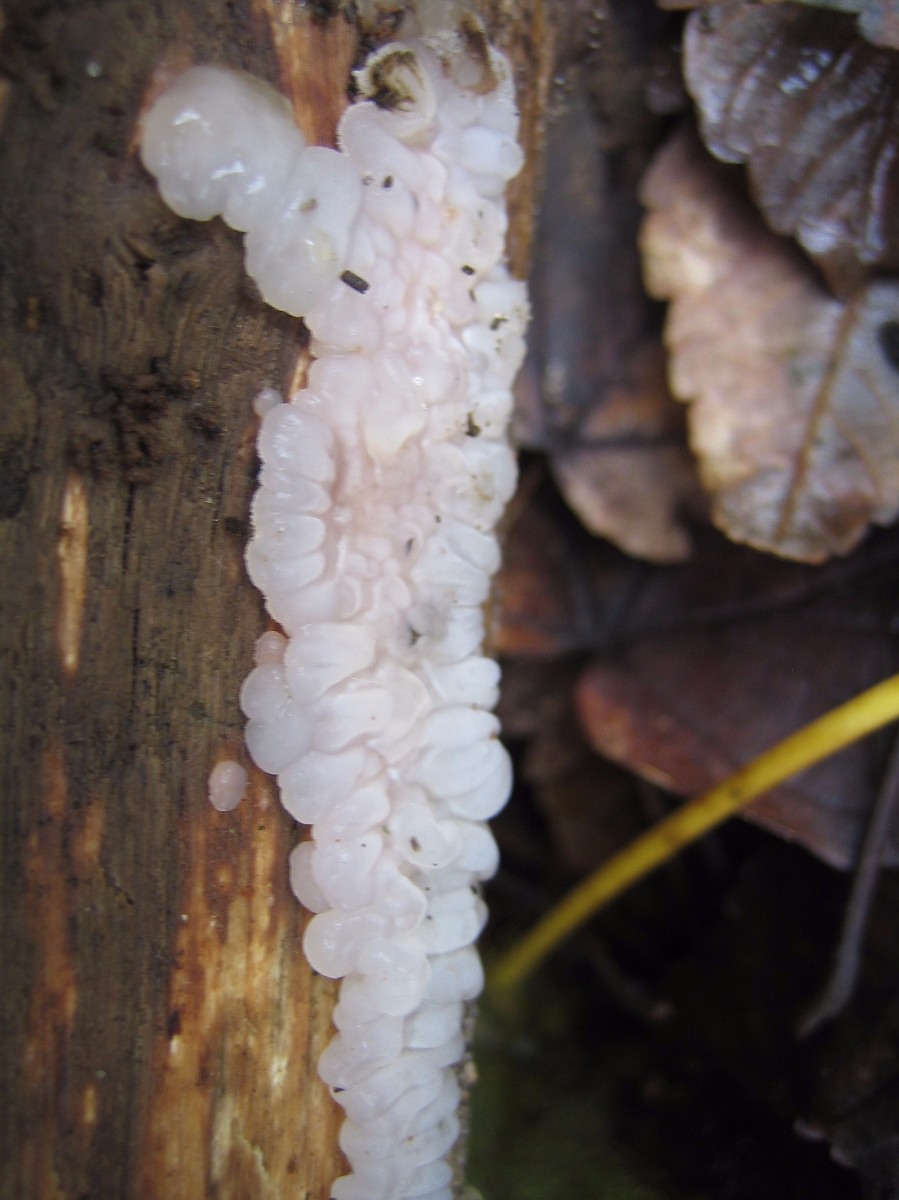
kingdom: Fungi
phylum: Basidiomycota
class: Agaricomycetes
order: Auriculariales
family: Auriculariaceae
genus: Exidia
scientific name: Exidia thuretiana
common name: hvidlig bævretop
